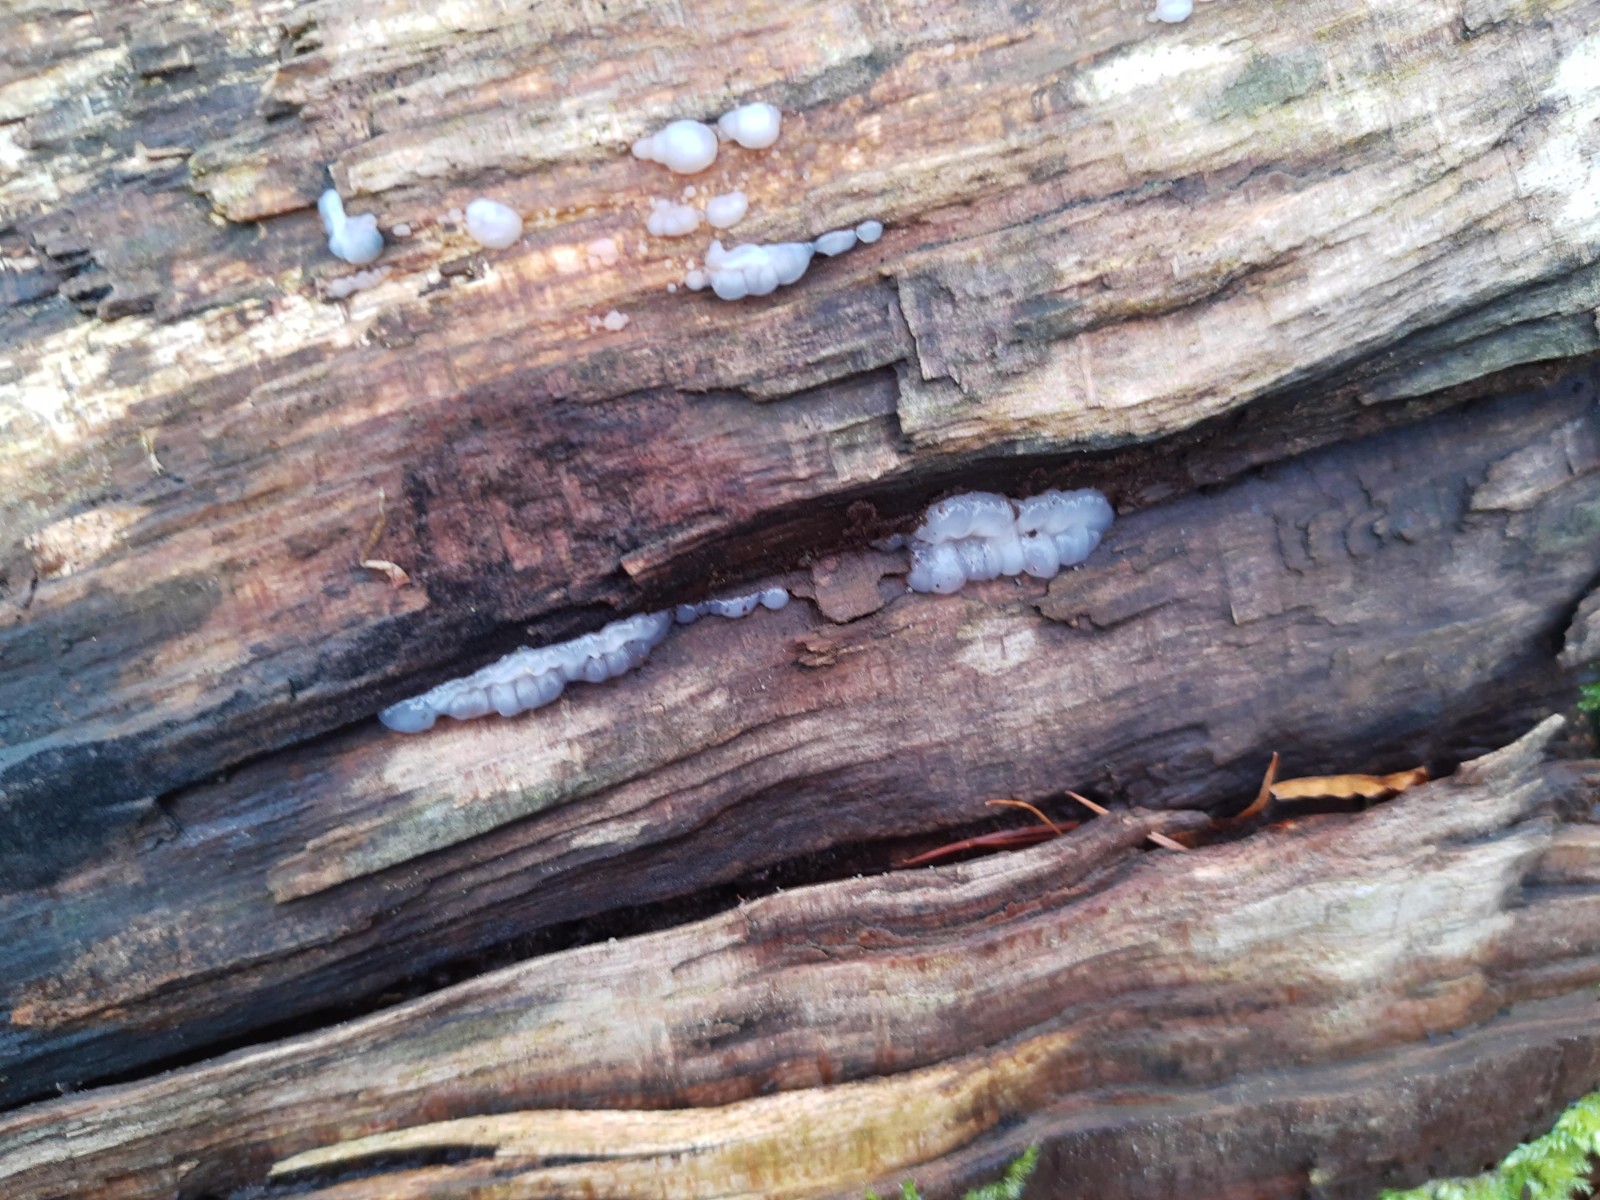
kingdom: Fungi
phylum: Basidiomycota
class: Agaricomycetes
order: Auriculariales
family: Auriculariaceae
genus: Exidia
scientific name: Exidia thuretiana
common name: hvidlig bævretop
